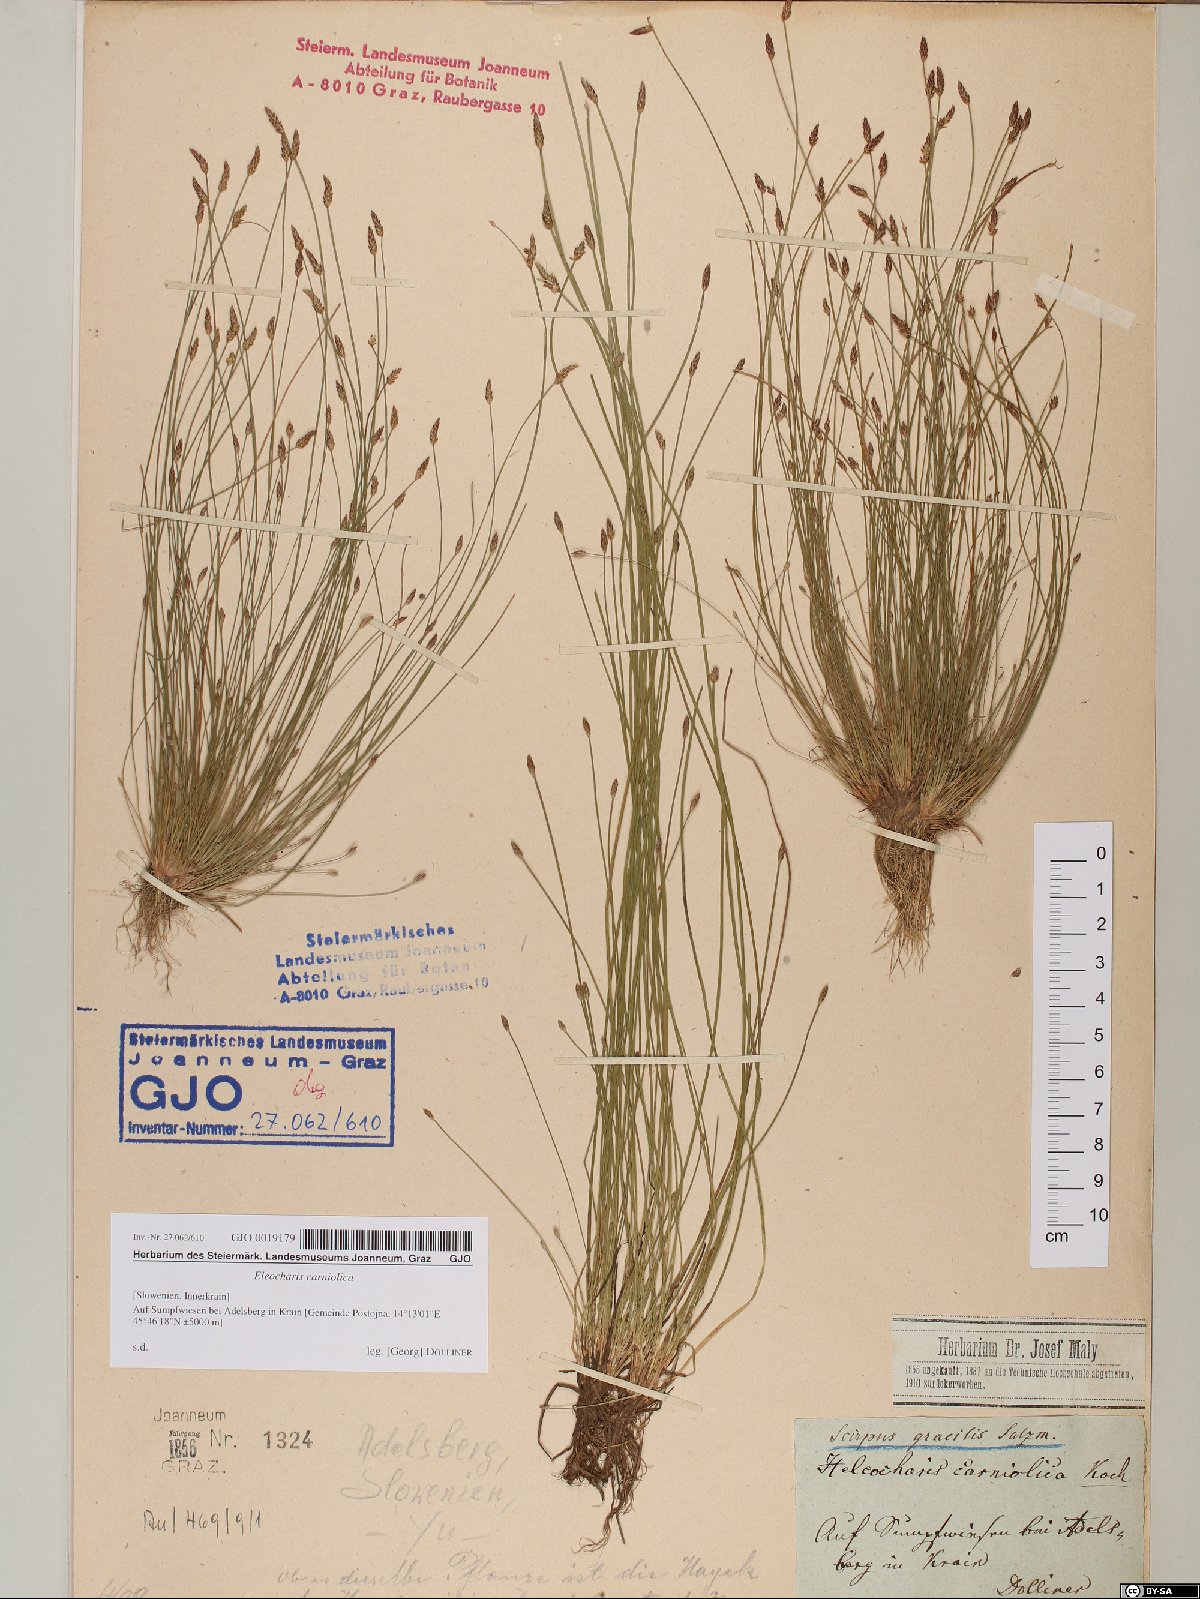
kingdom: Plantae
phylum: Tracheophyta
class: Liliopsida
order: Poales
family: Cyperaceae
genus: Eleocharis
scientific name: Eleocharis carniolica
